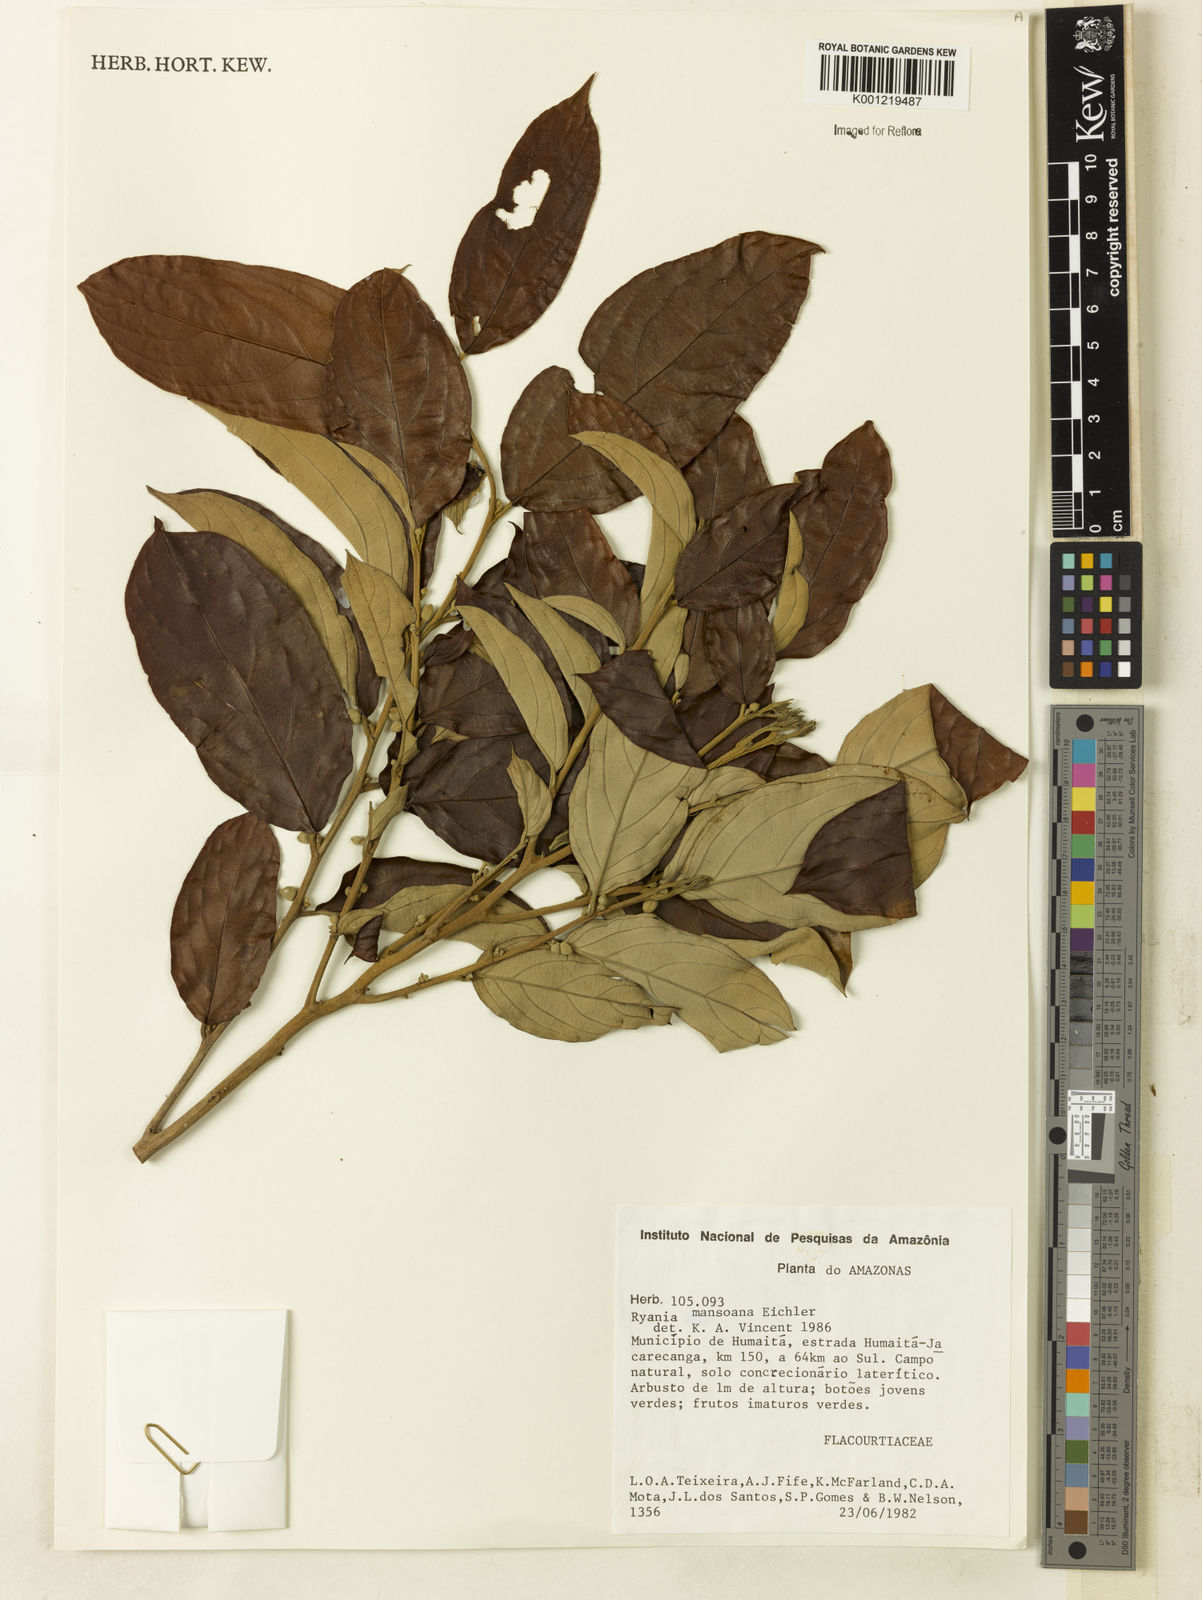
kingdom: Plantae
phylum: Tracheophyta
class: Magnoliopsida
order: Malpighiales
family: Salicaceae
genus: Ryania
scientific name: Ryania mansoana
